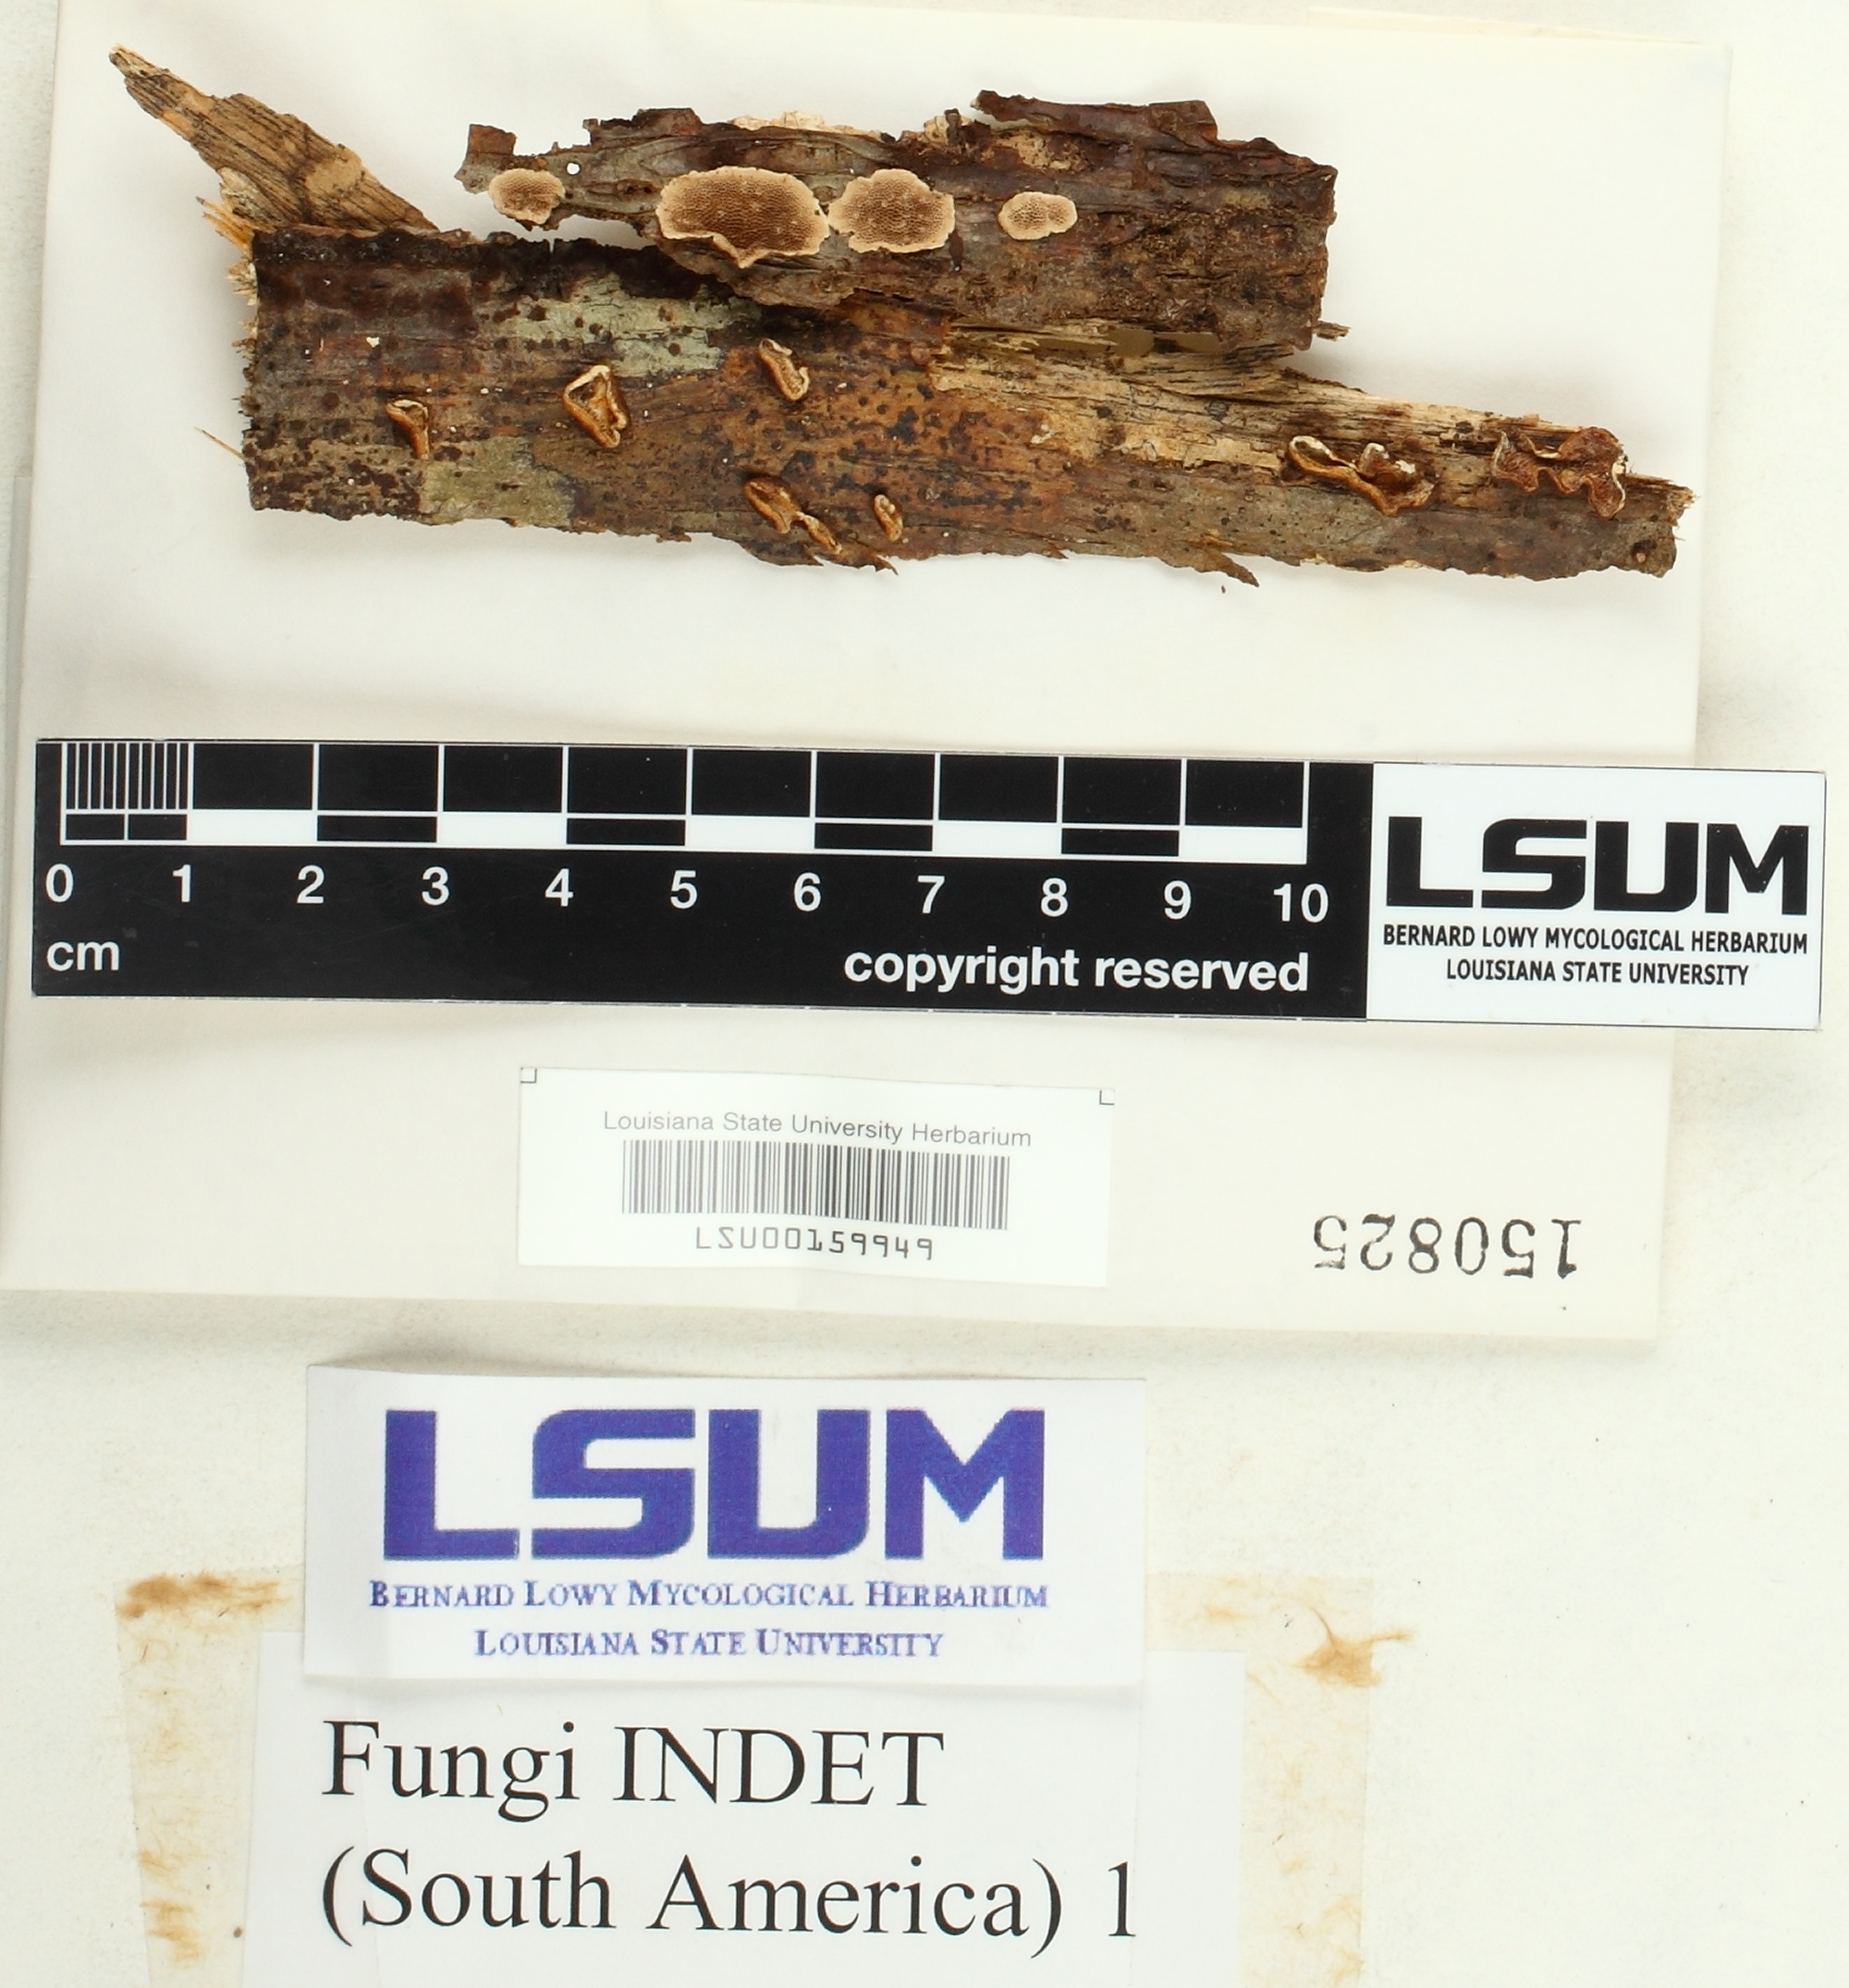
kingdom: Fungi
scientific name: Fungi
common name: Fungi
